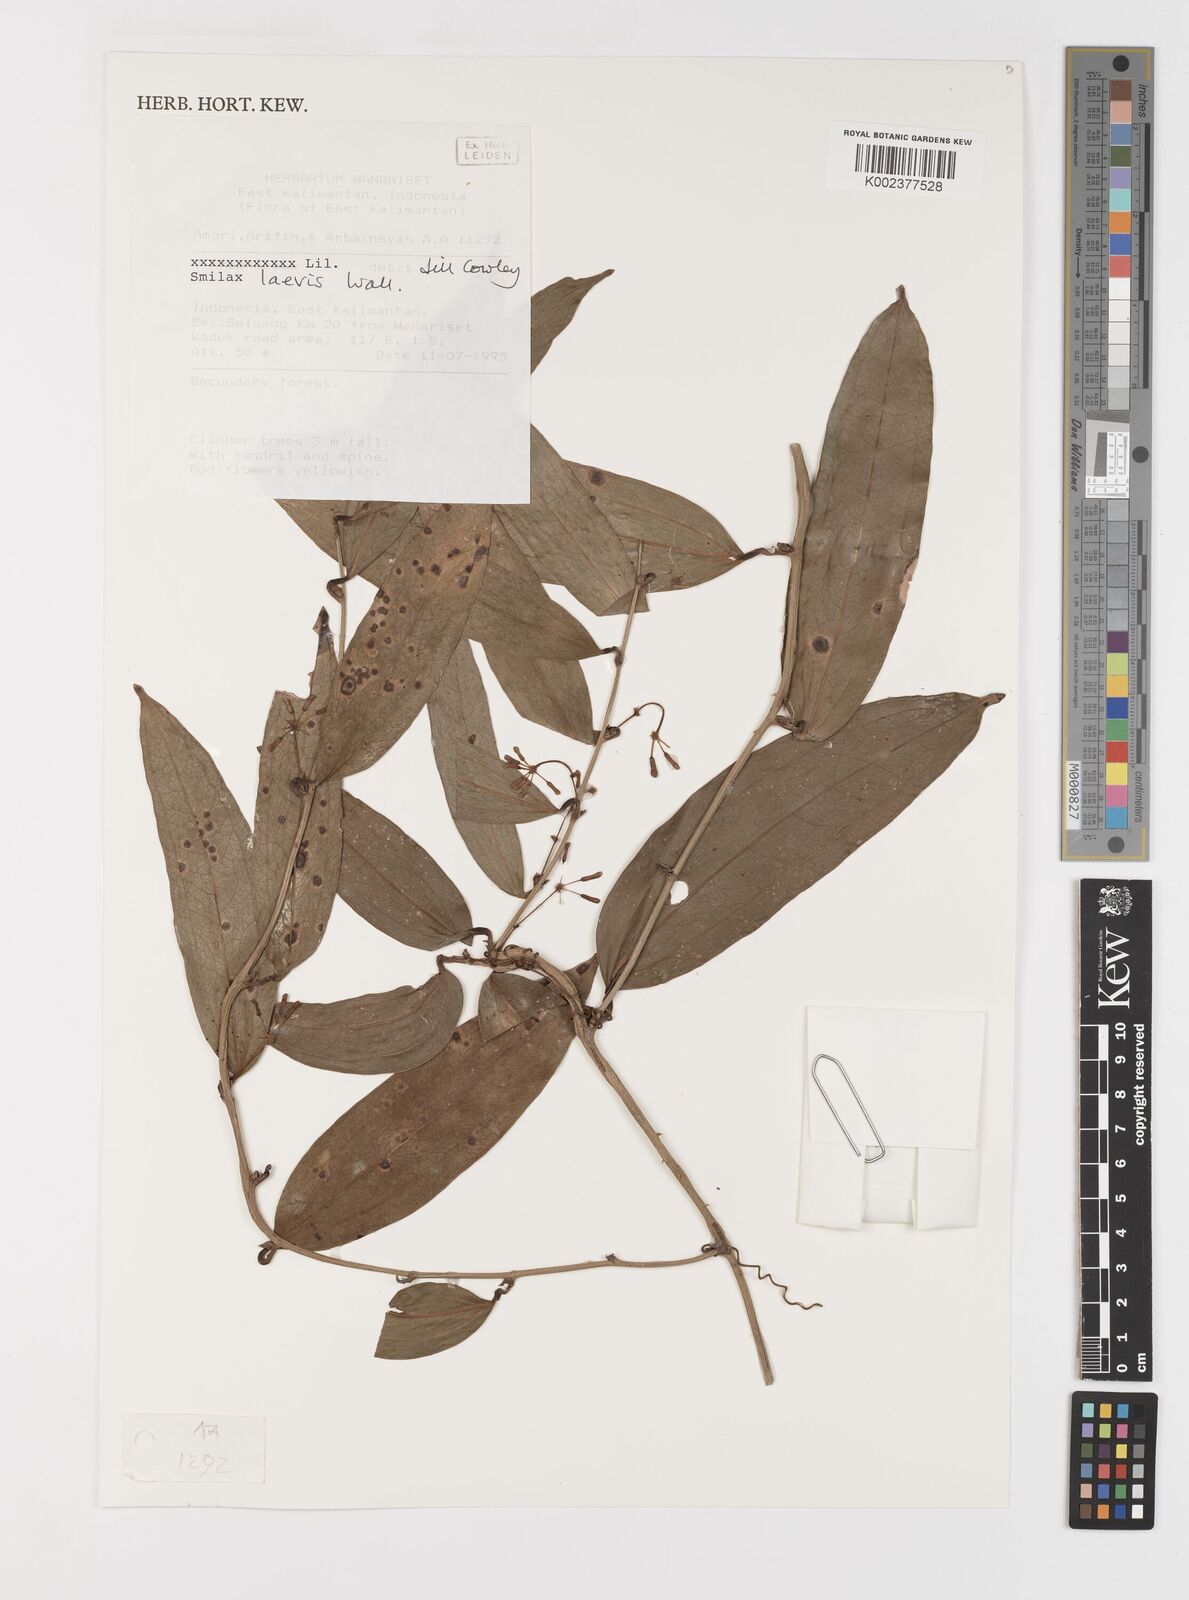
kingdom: Plantae
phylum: Tracheophyta
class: Liliopsida
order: Liliales
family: Smilacaceae
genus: Smilax
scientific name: Smilax laevis
